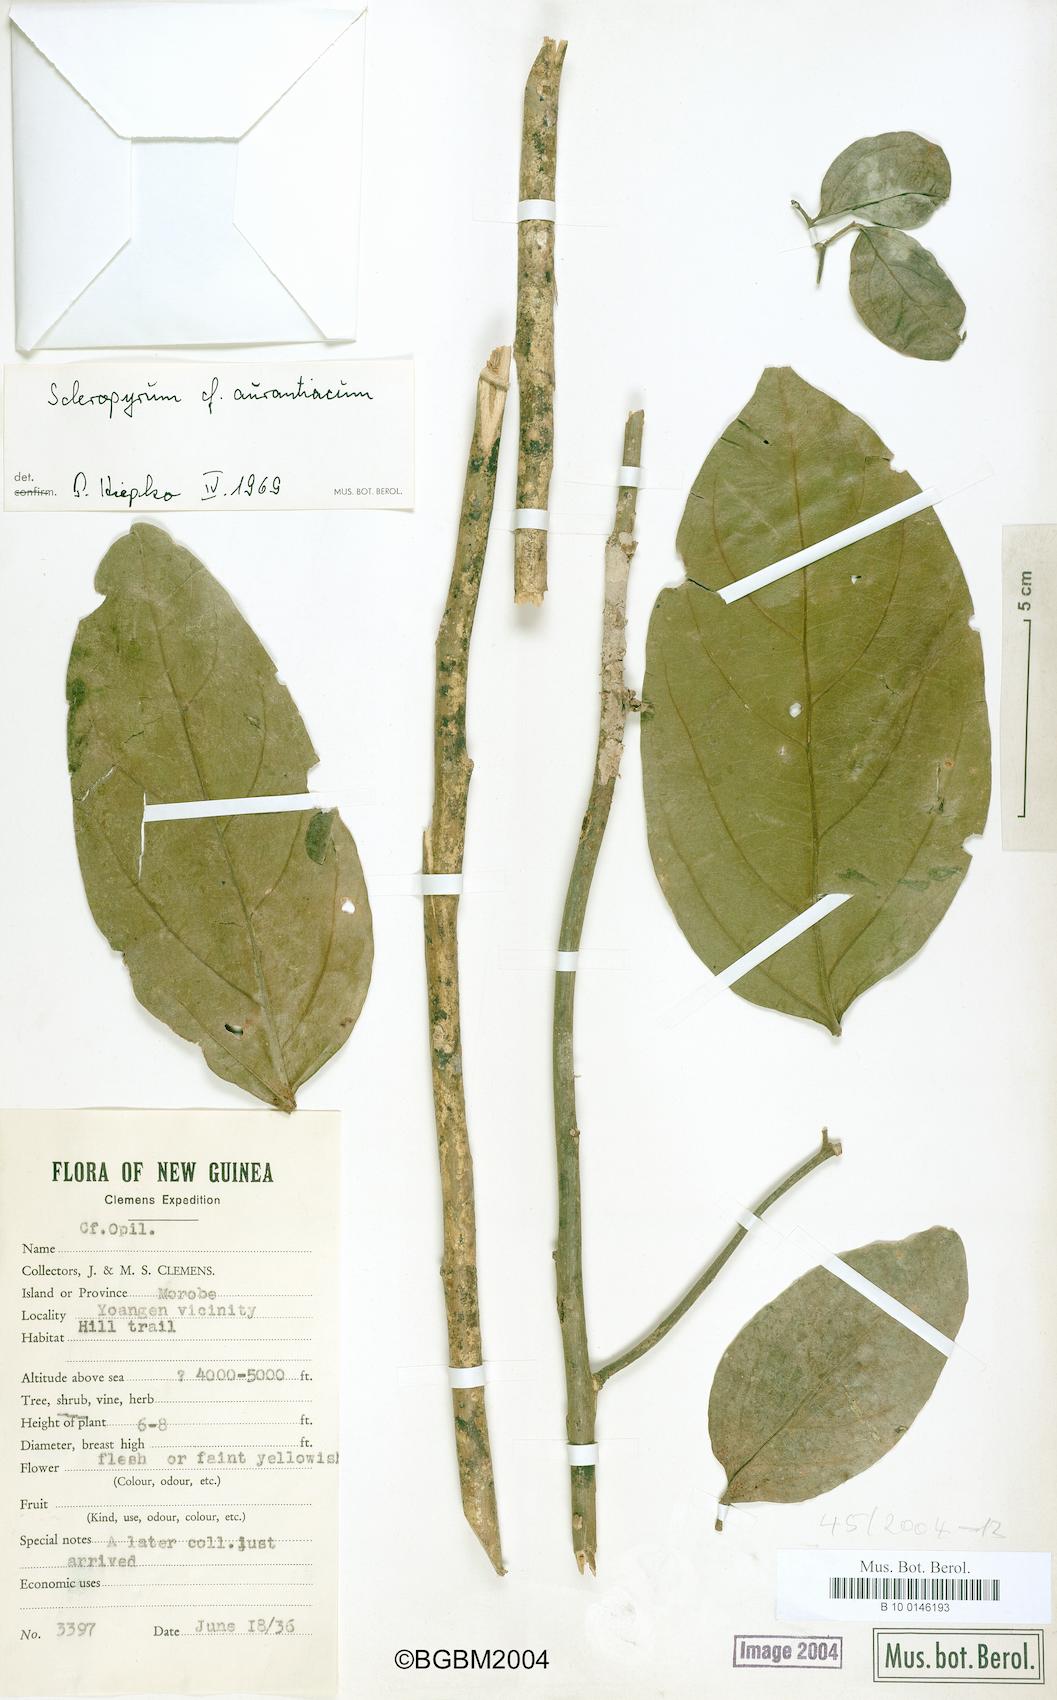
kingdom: Plantae
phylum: Tracheophyta
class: Magnoliopsida
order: Santalales
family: Cervantesiaceae
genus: Scleropyrum
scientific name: Scleropyrum aurantiacum
